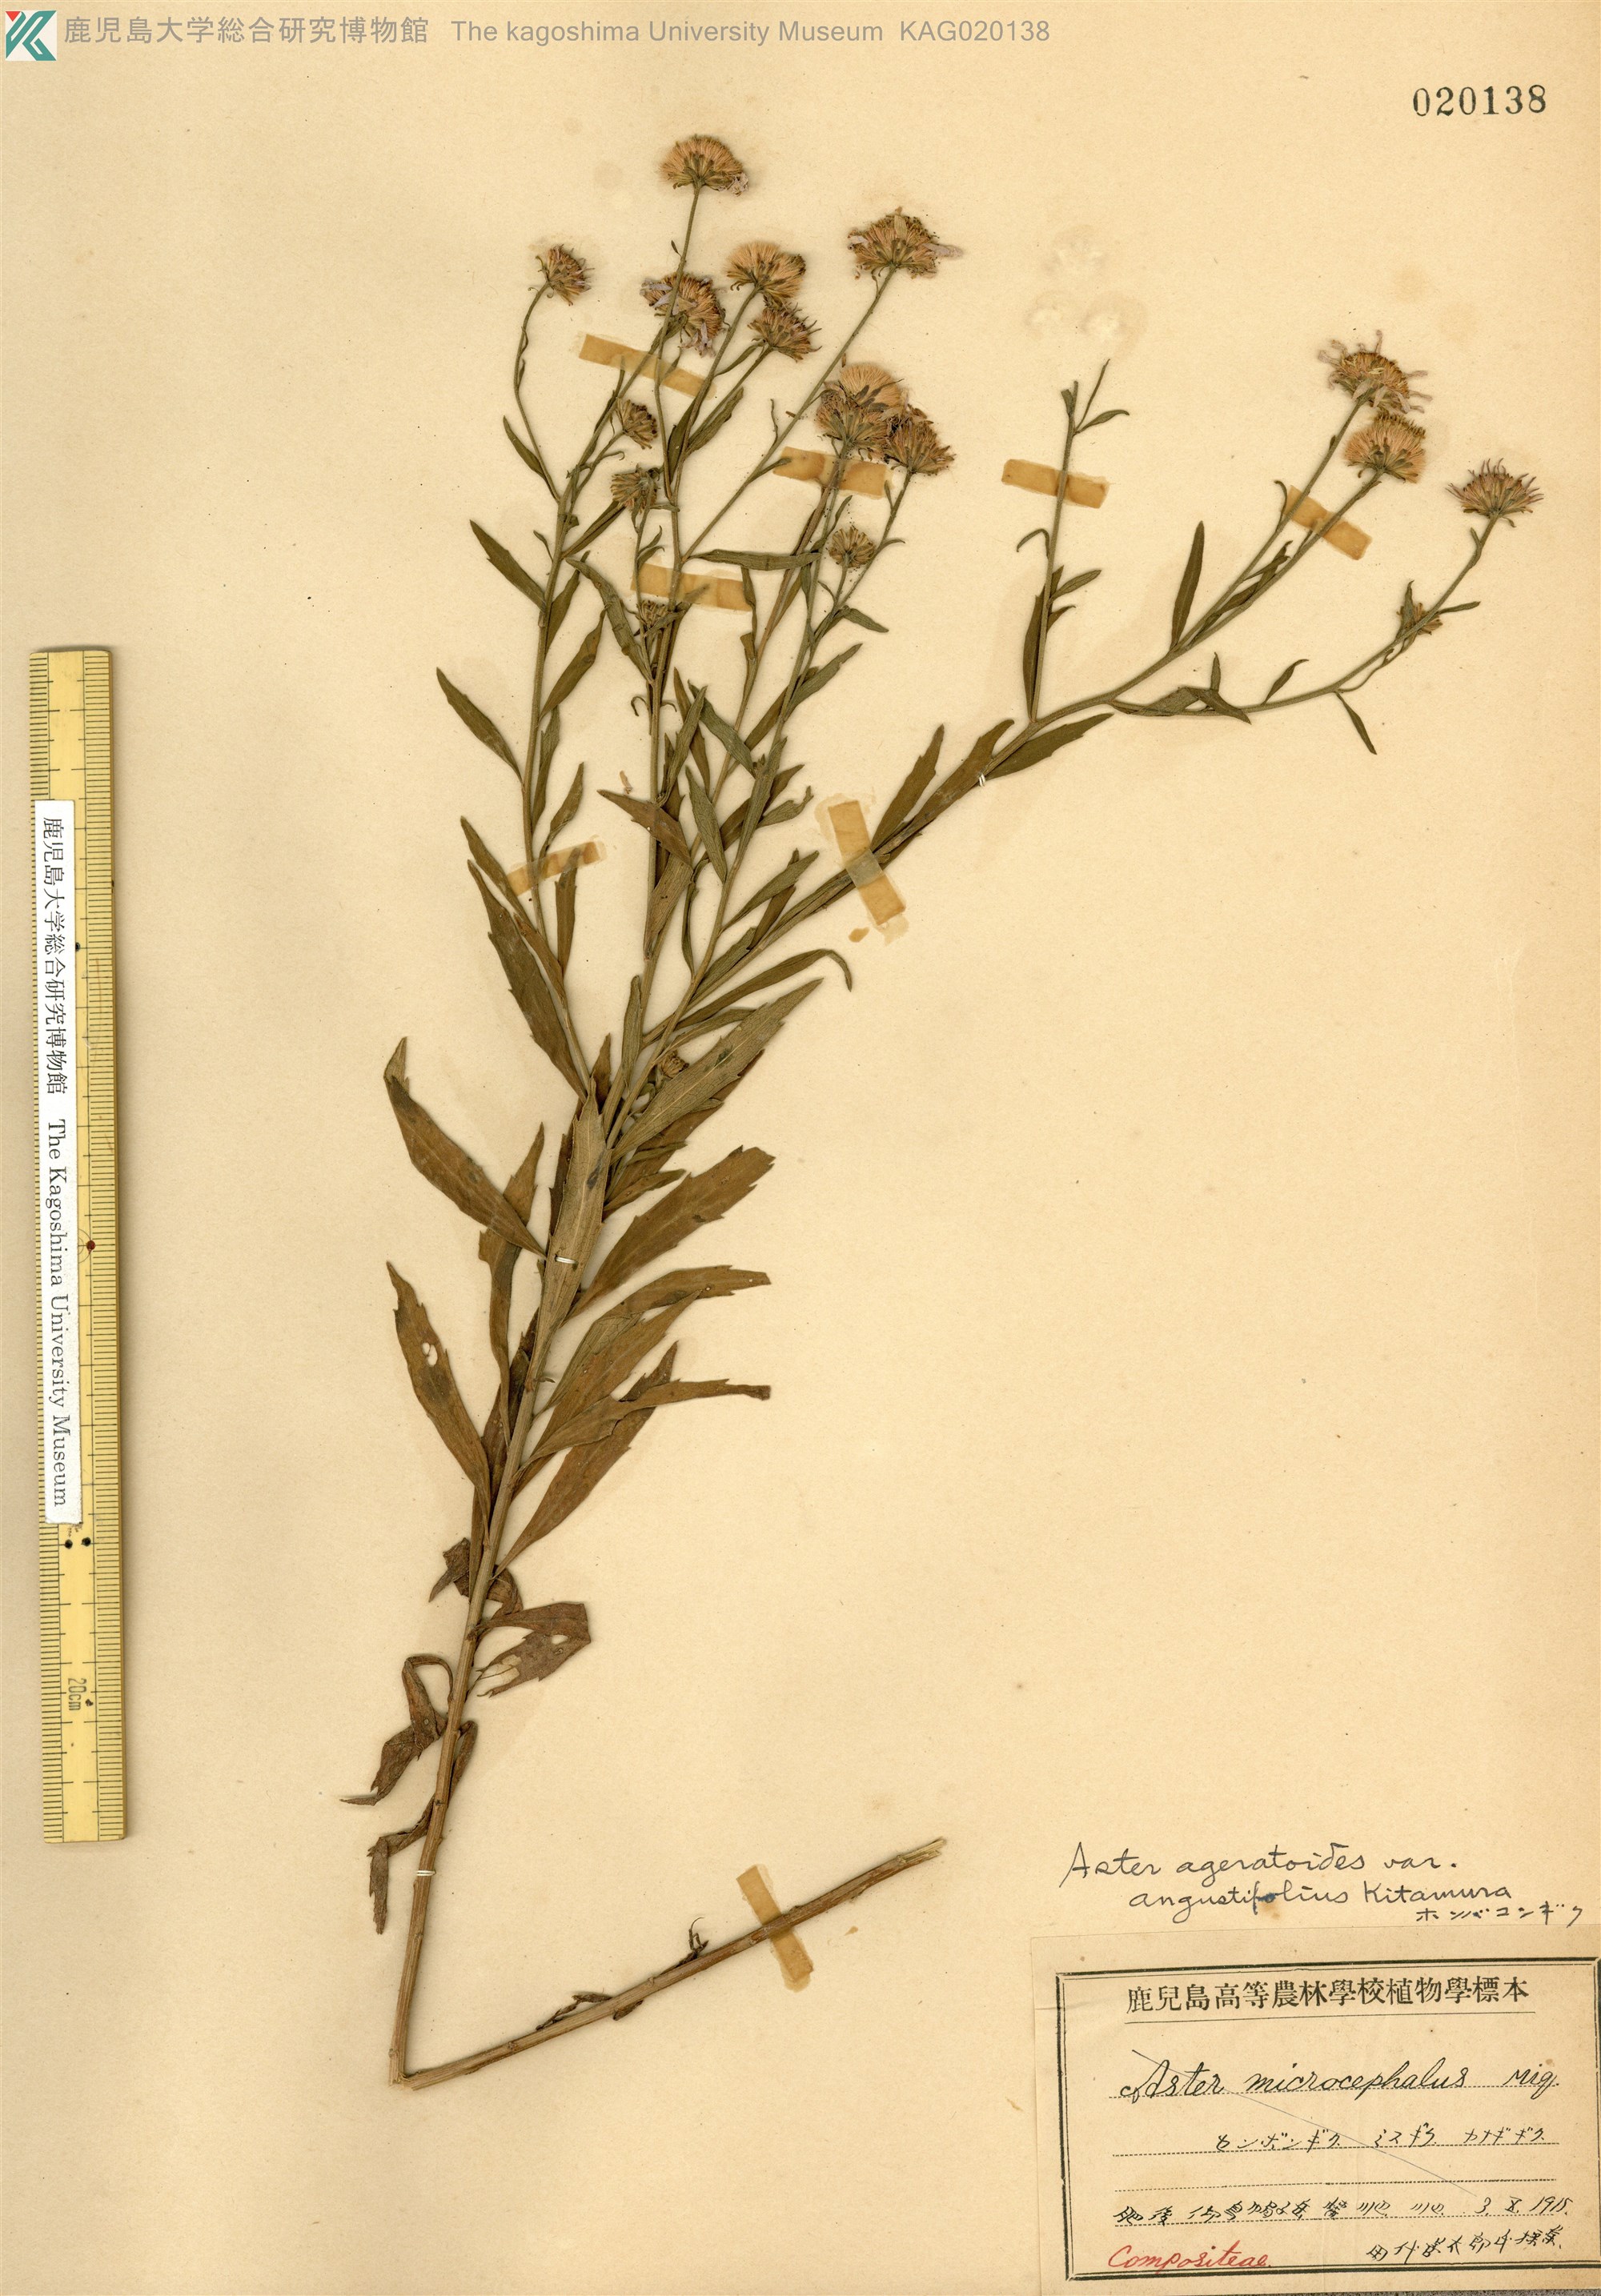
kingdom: Plantae
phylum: Tracheophyta
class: Magnoliopsida
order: Asterales
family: Asteraceae
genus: Aster
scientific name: Aster microcephalus
